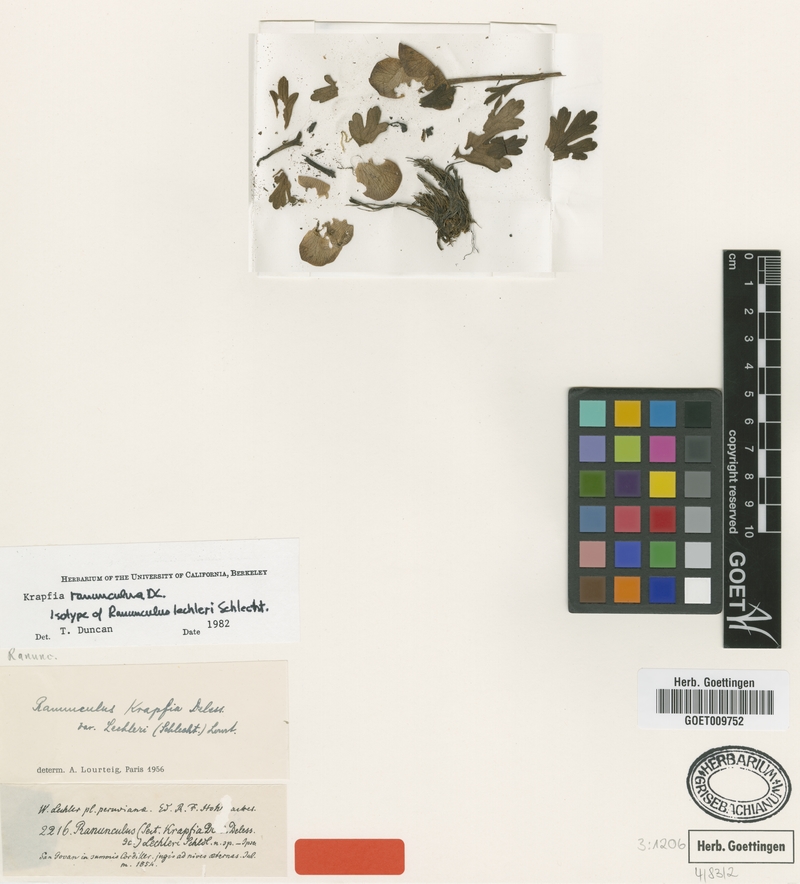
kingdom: Plantae
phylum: Tracheophyta
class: Magnoliopsida
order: Ranunculales
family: Ranunculaceae
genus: Krapfia
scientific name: Krapfia ranunculina
